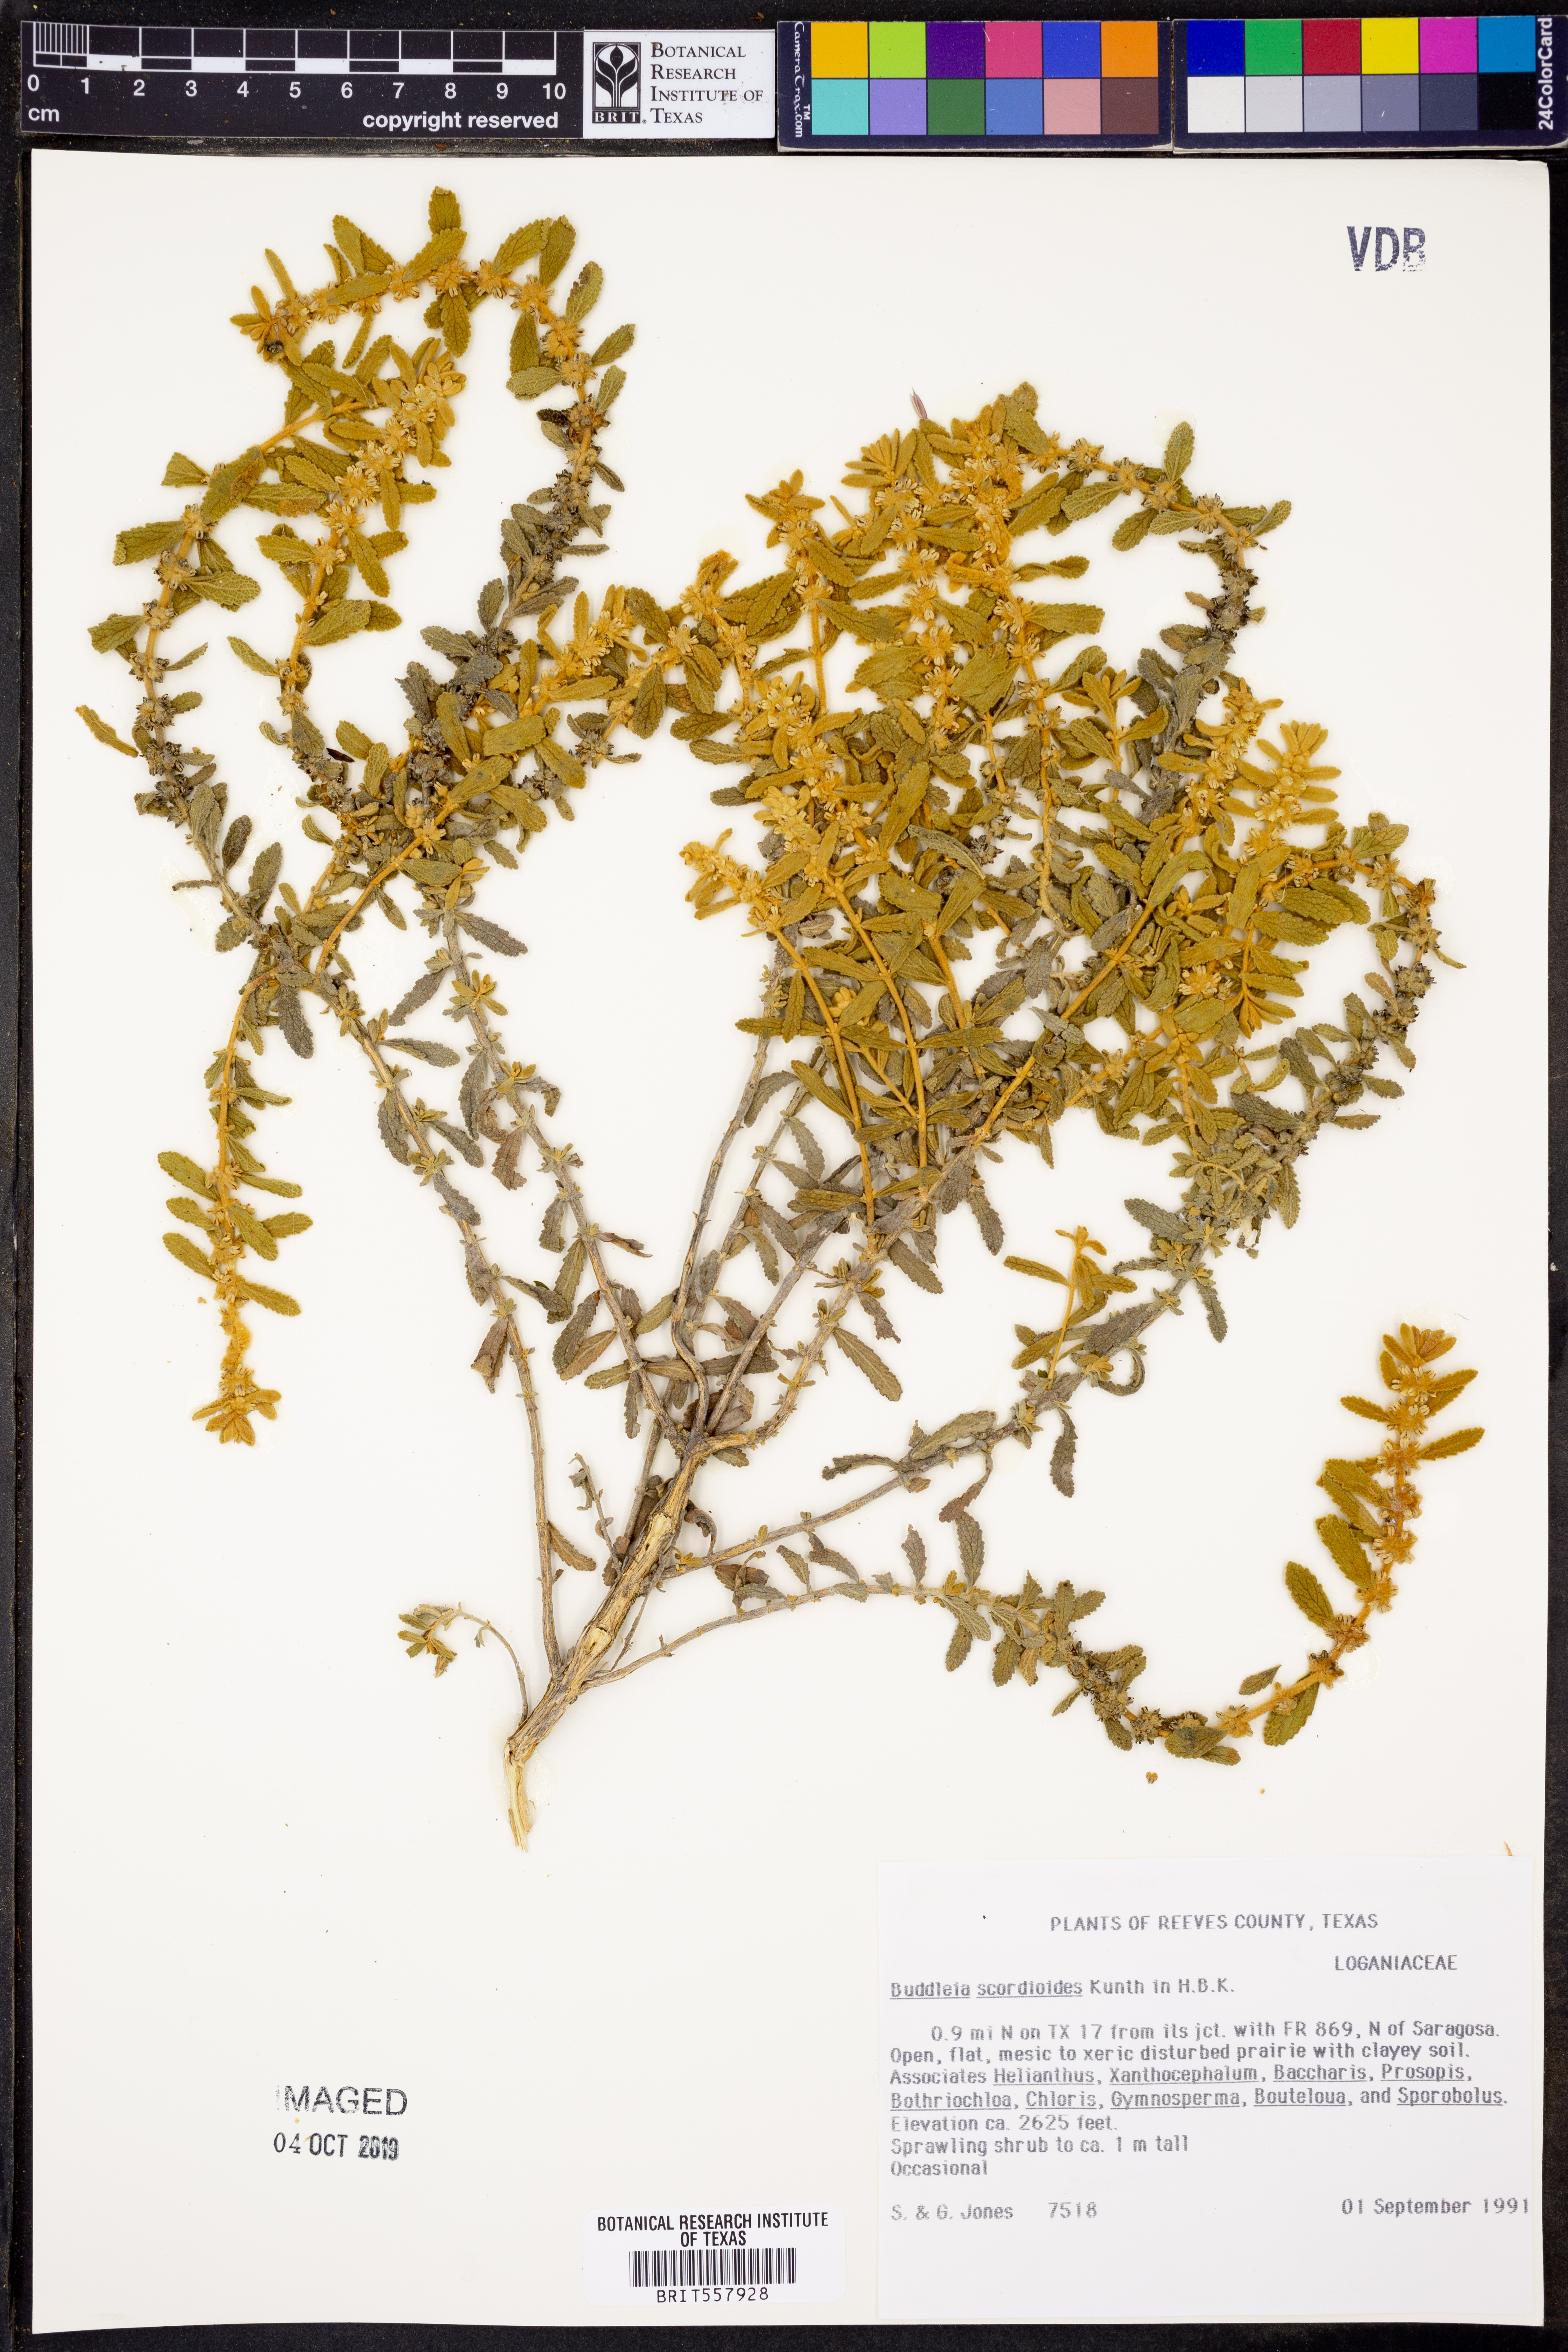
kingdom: Plantae
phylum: Tracheophyta
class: Magnoliopsida
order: Lamiales
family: Scrophulariaceae
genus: Buddleja
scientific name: Buddleja scordioides
